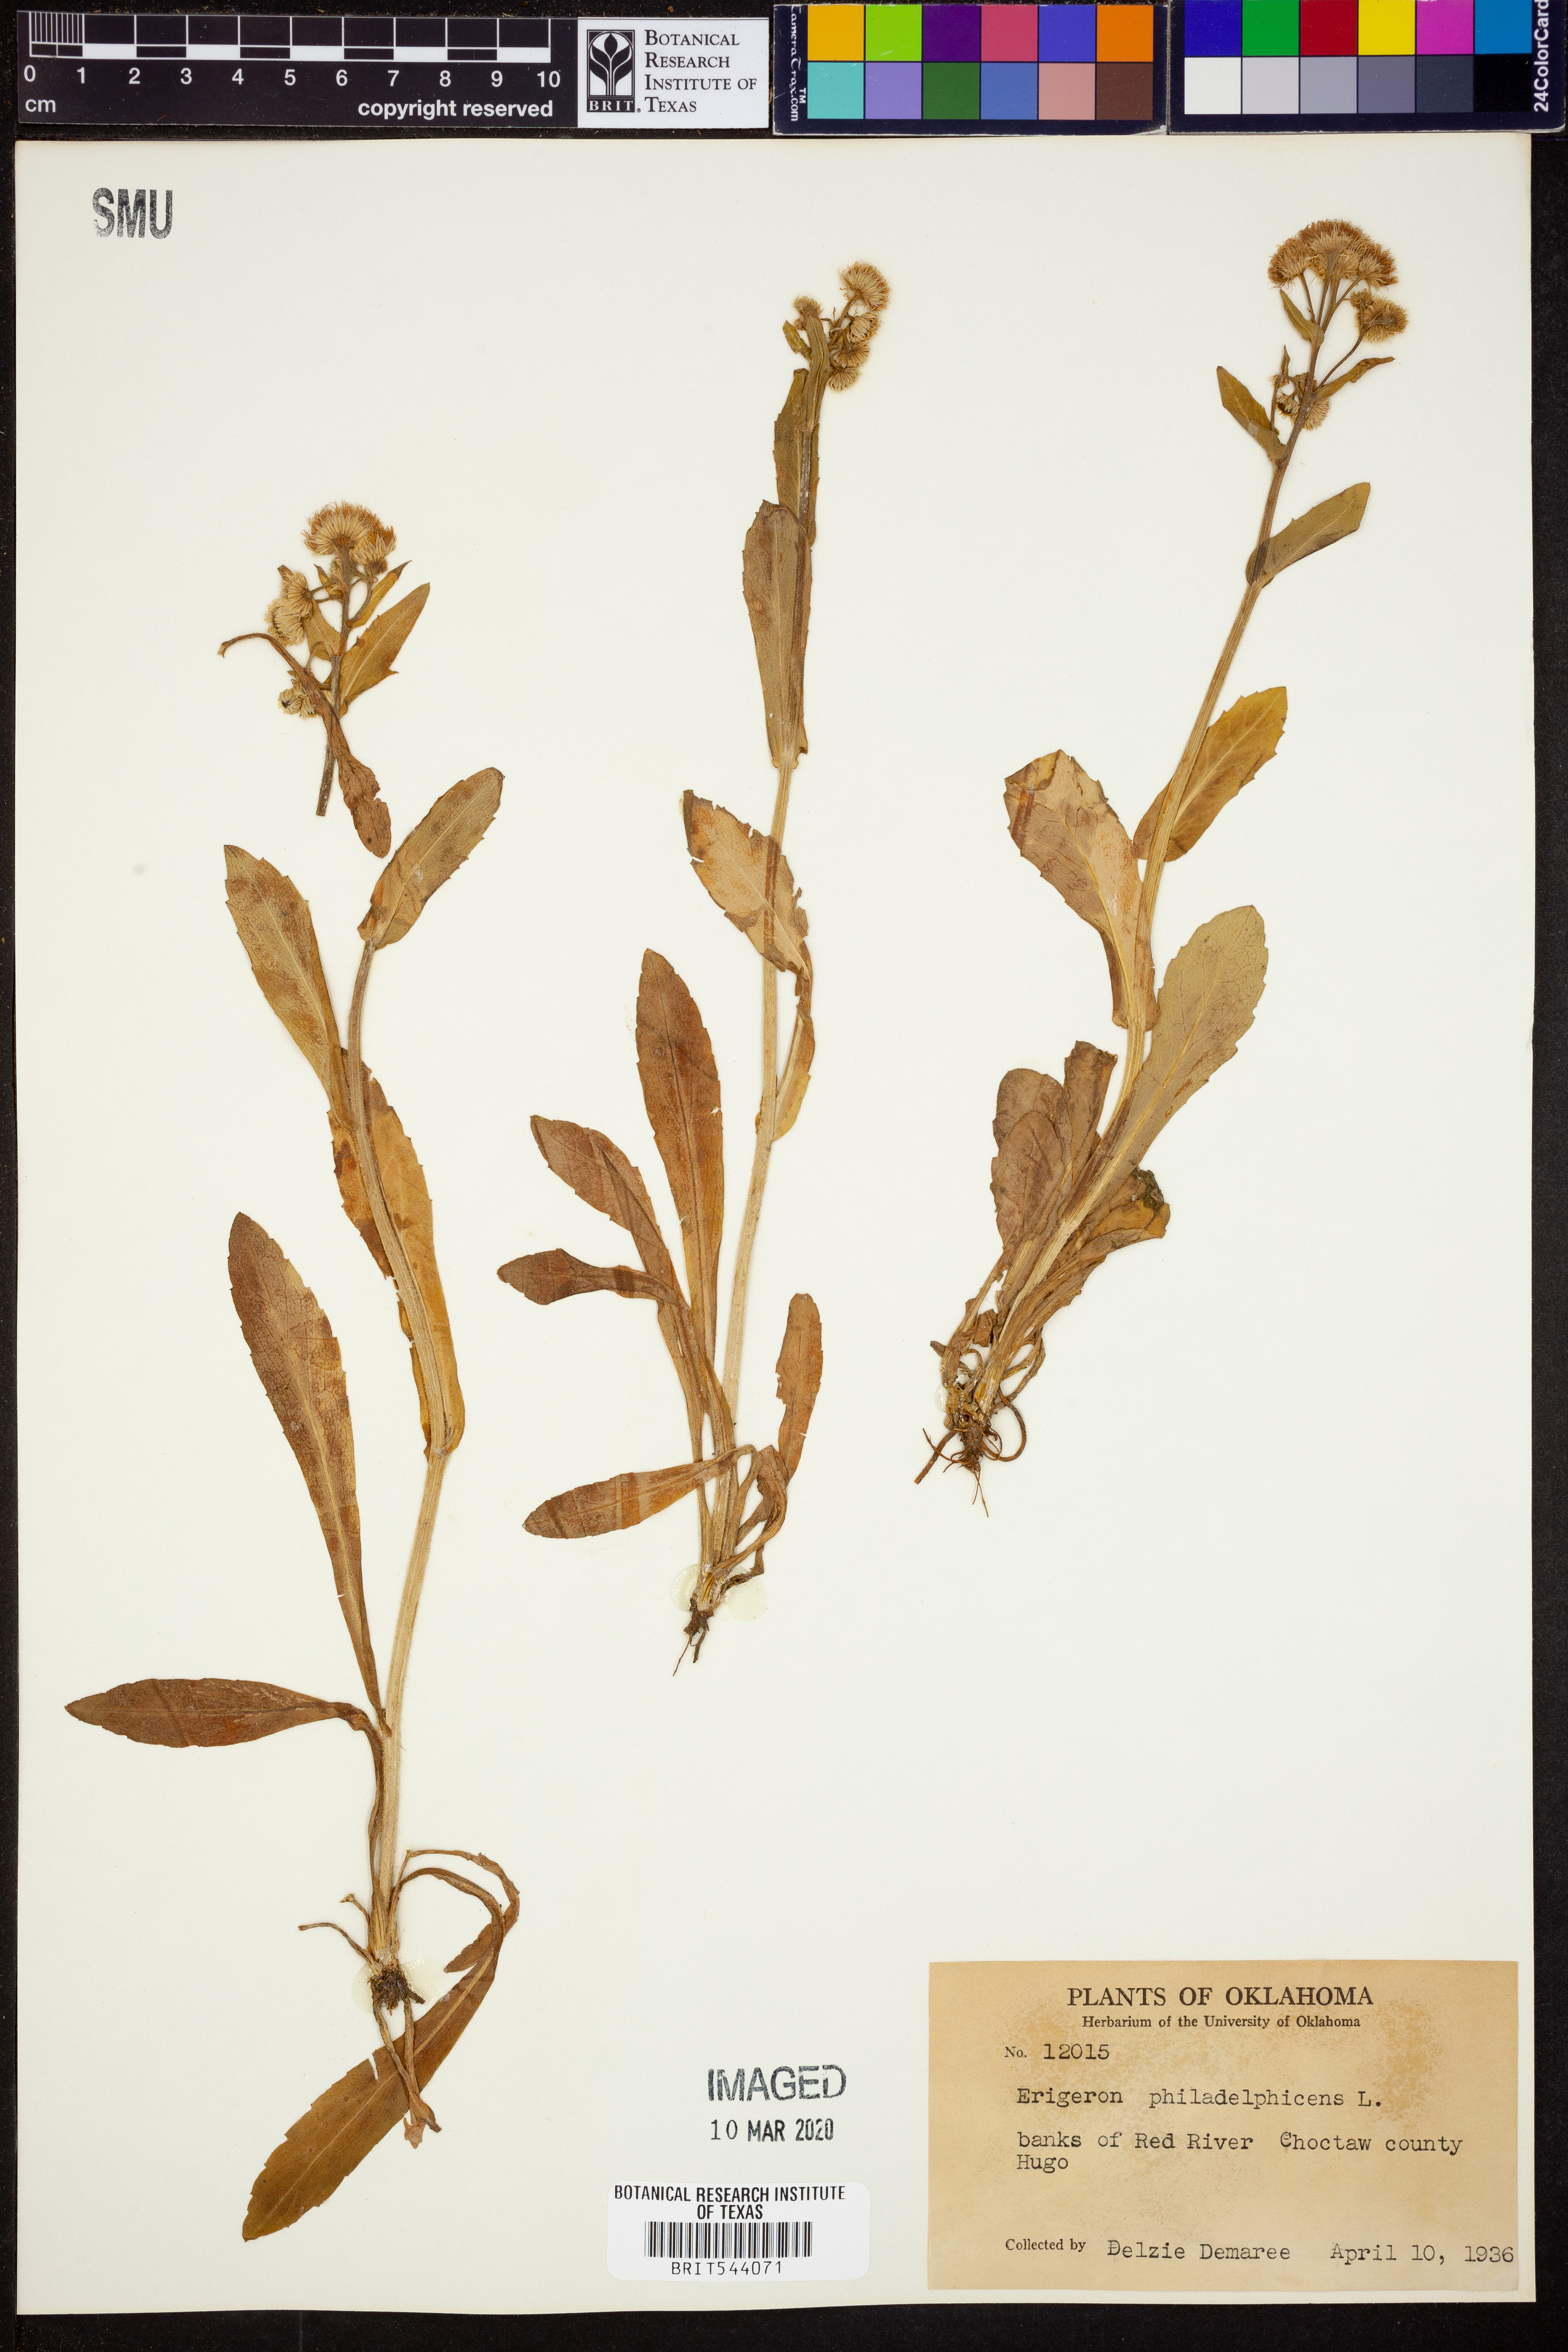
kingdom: Plantae
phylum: Tracheophyta
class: Magnoliopsida
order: Asterales
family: Asteraceae
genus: Erigeron
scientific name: Erigeron philadelphicus
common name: Robin's-plantain
